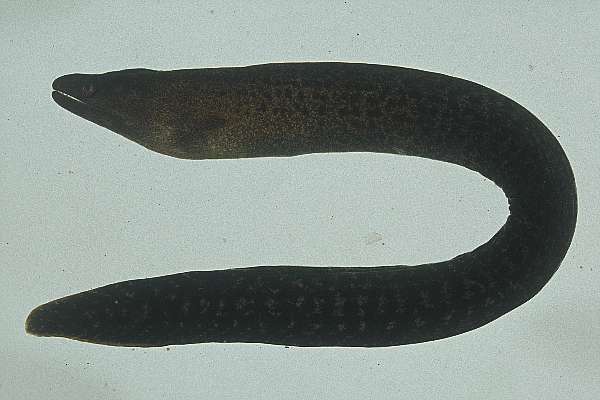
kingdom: Animalia
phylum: Chordata
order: Anguilliformes
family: Muraenidae
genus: Gymnothorax
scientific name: Gymnothorax buroensis
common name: Latticetail moray
